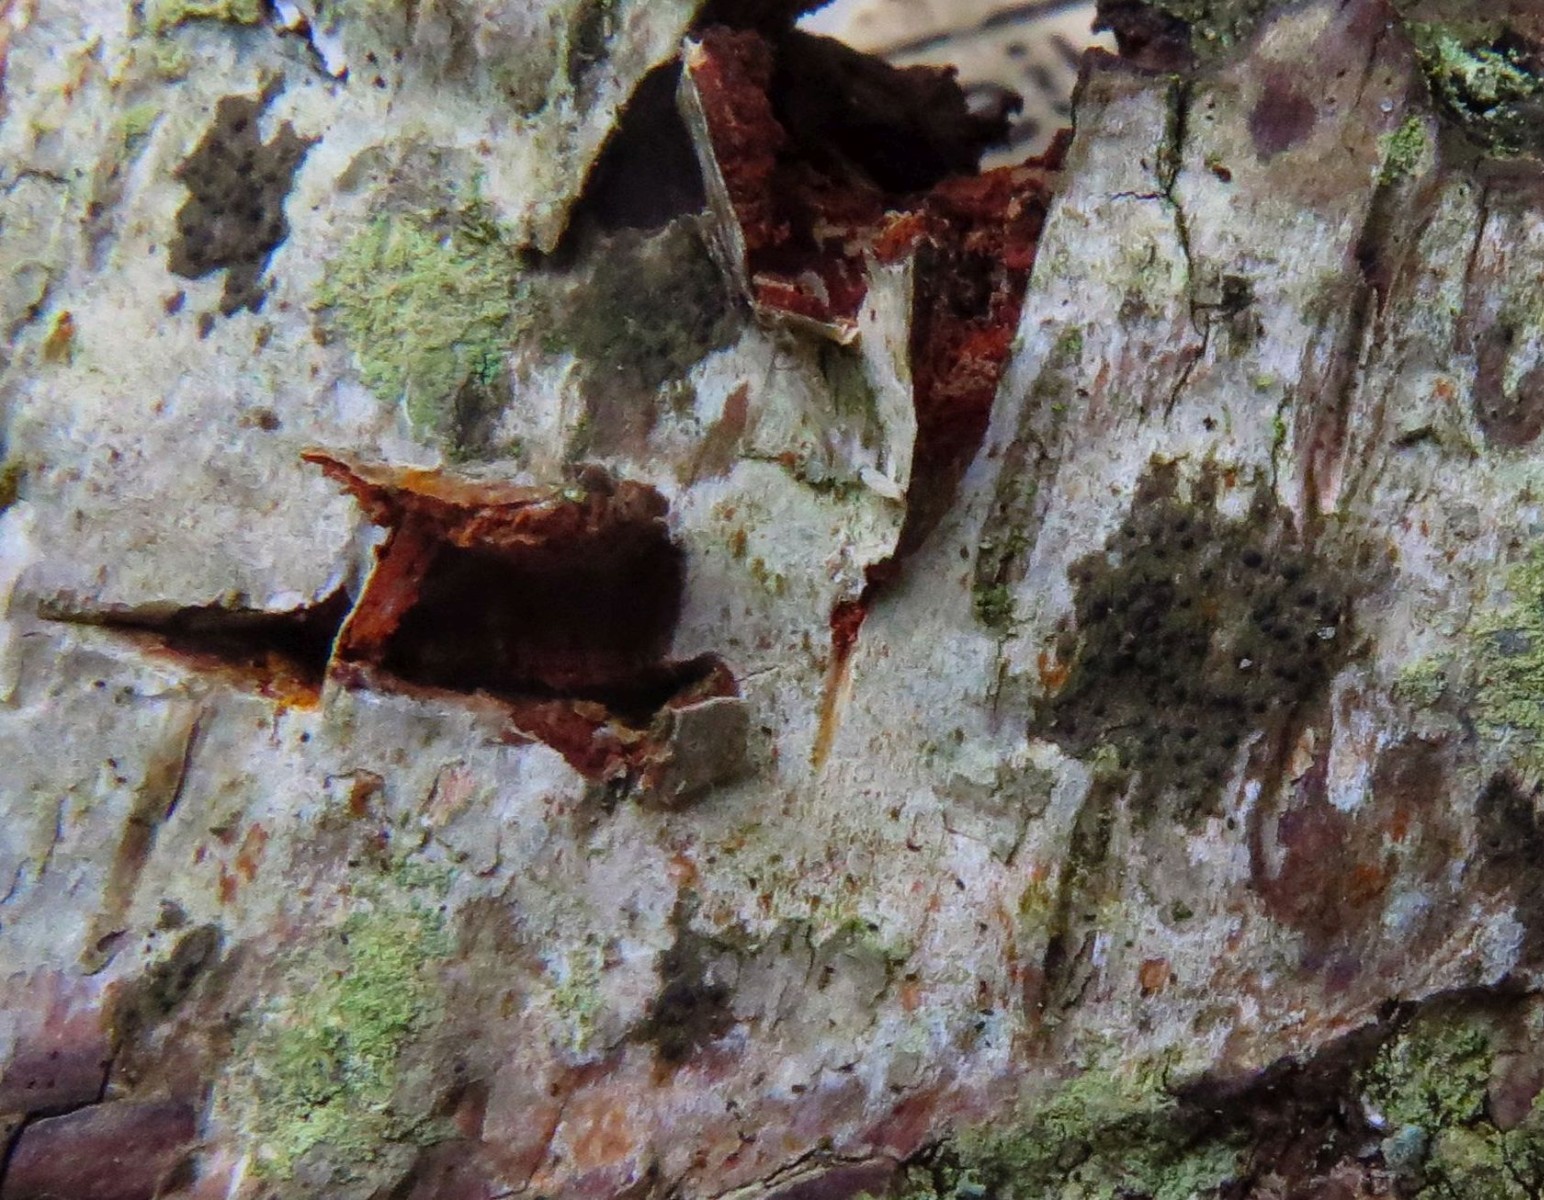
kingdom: Fungi
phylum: Ascomycota
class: Lecanoromycetes
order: Ostropales
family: Porinaceae
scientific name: Porinaceae
